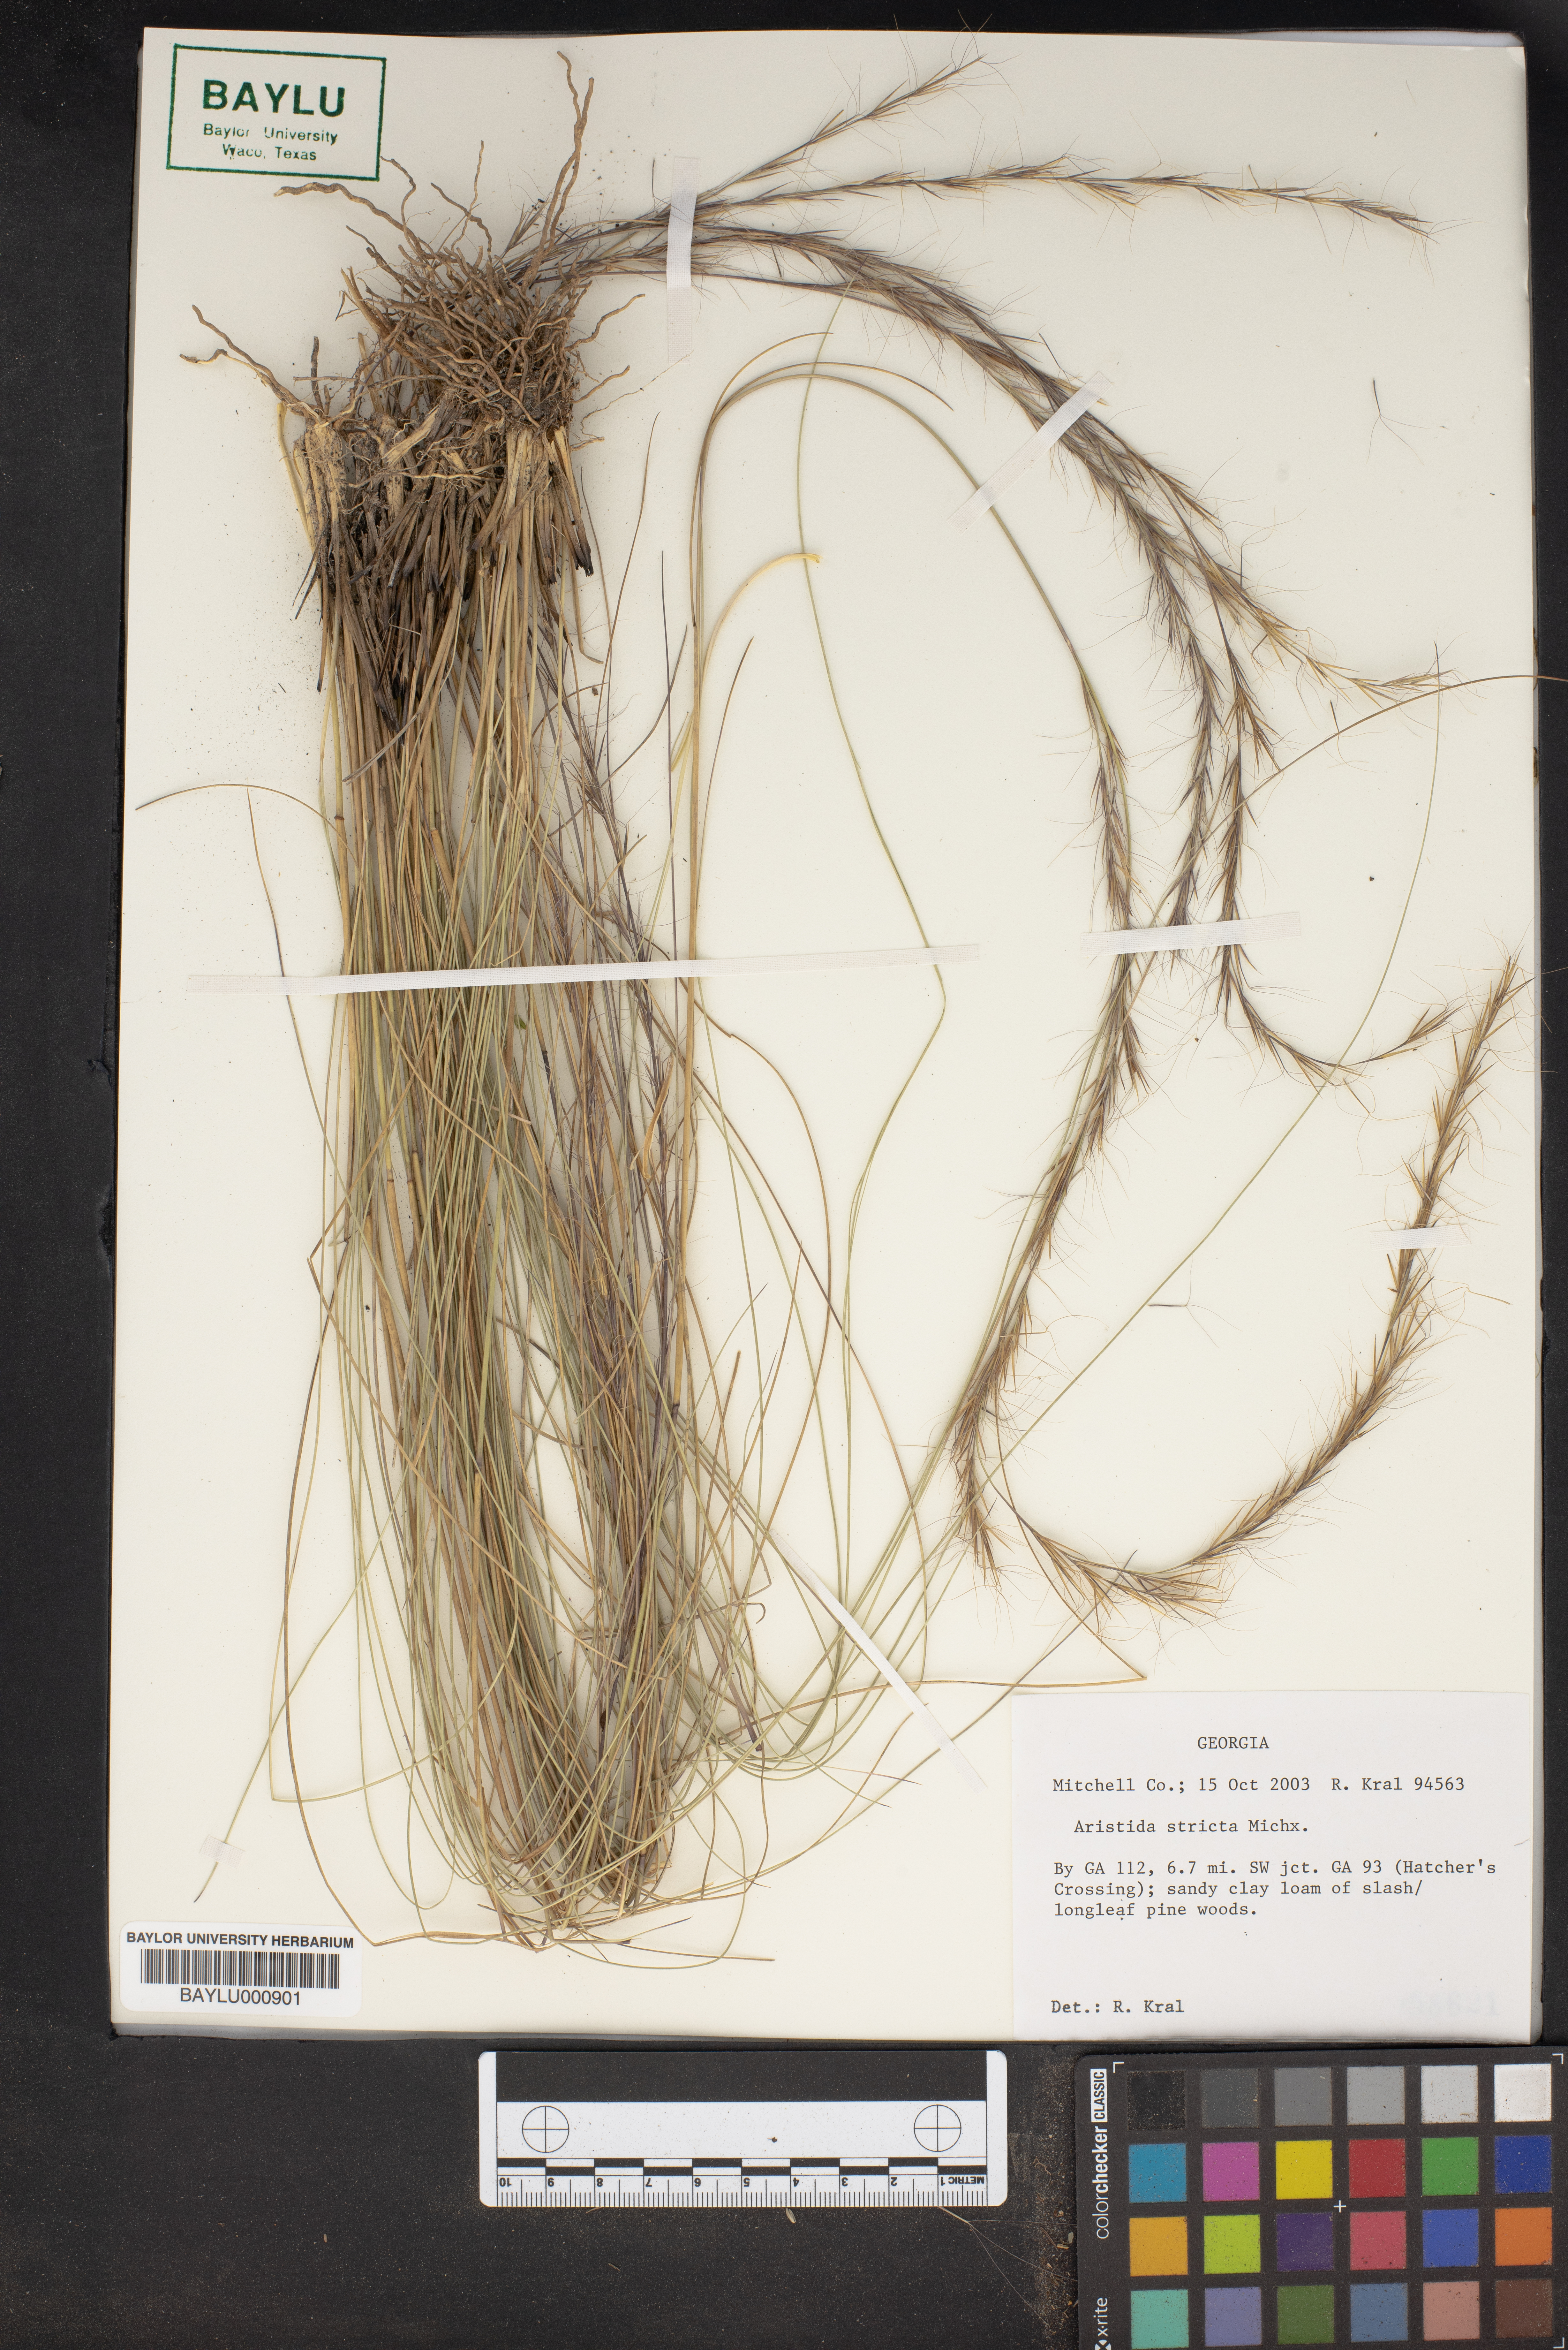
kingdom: Plantae
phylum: Tracheophyta
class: Liliopsida
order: Poales
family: Poaceae
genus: Aristida
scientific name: Aristida stricta
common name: Pineland three-awn
